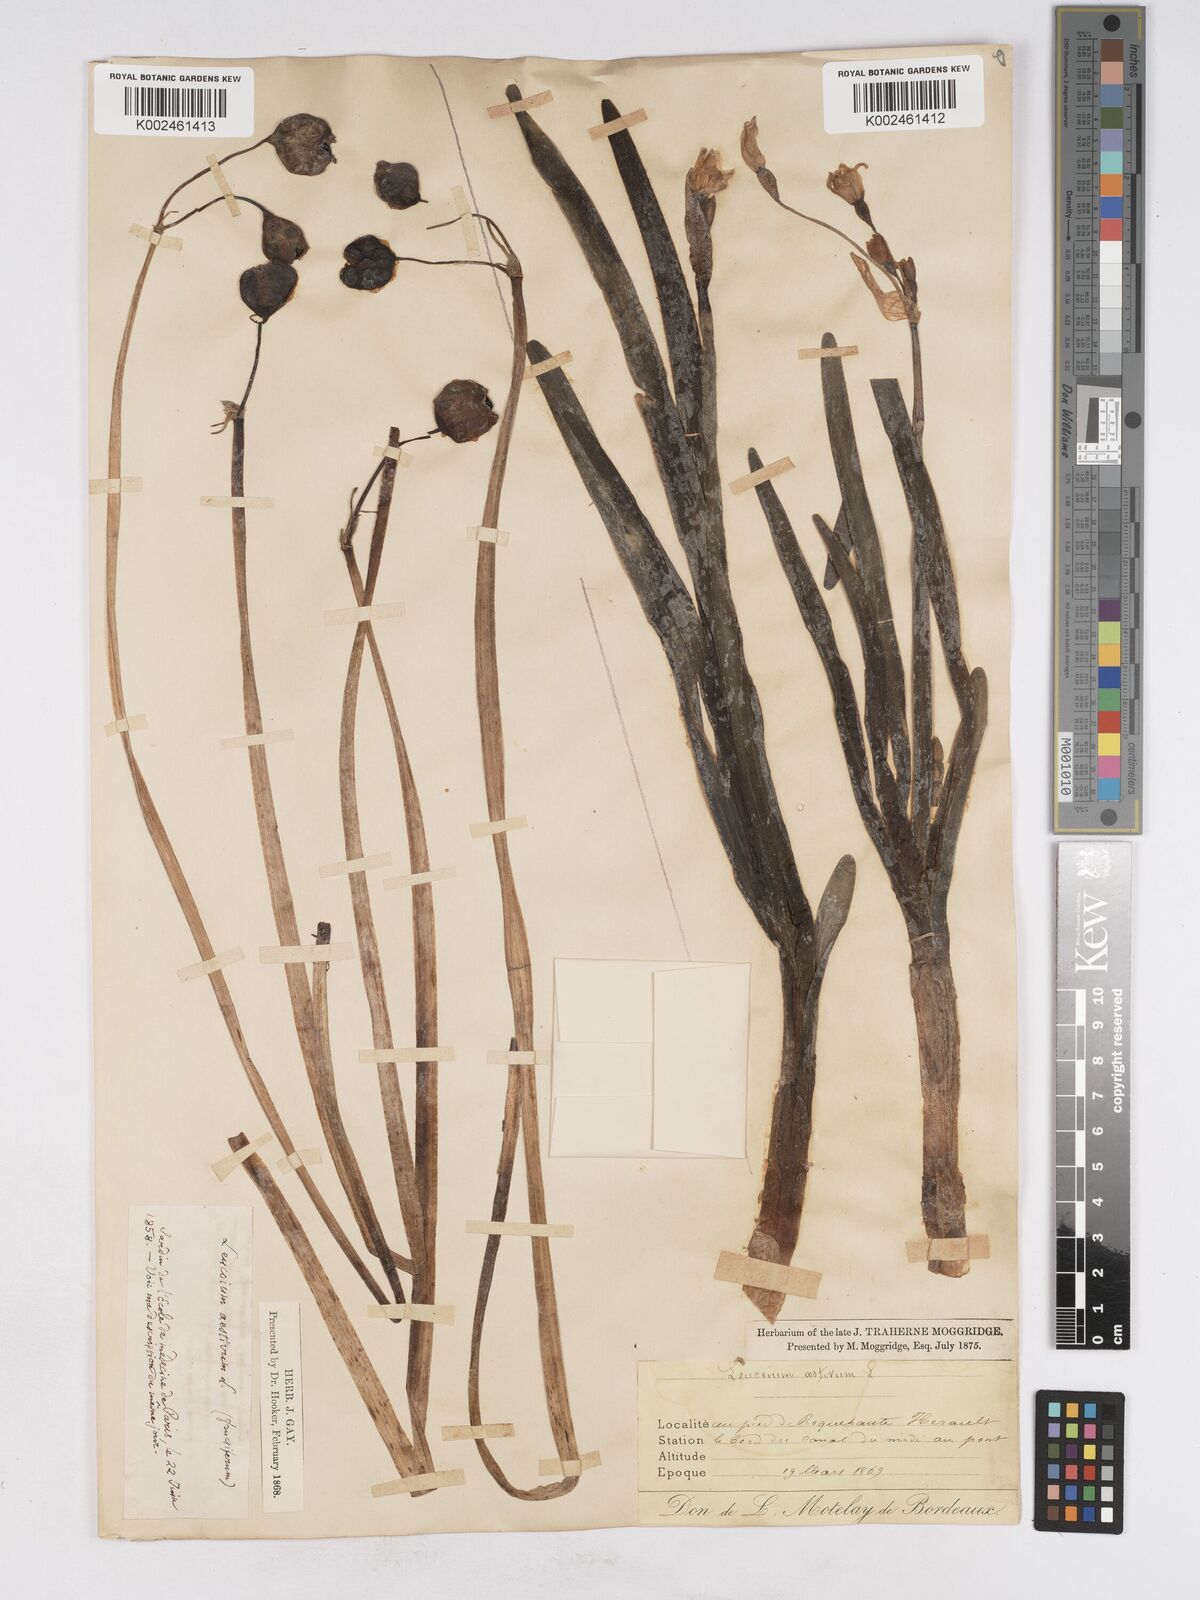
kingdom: Plantae
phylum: Tracheophyta
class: Liliopsida
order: Asparagales
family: Amaryllidaceae
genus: Leucojum
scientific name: Leucojum aestivum
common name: Summer snowflake
